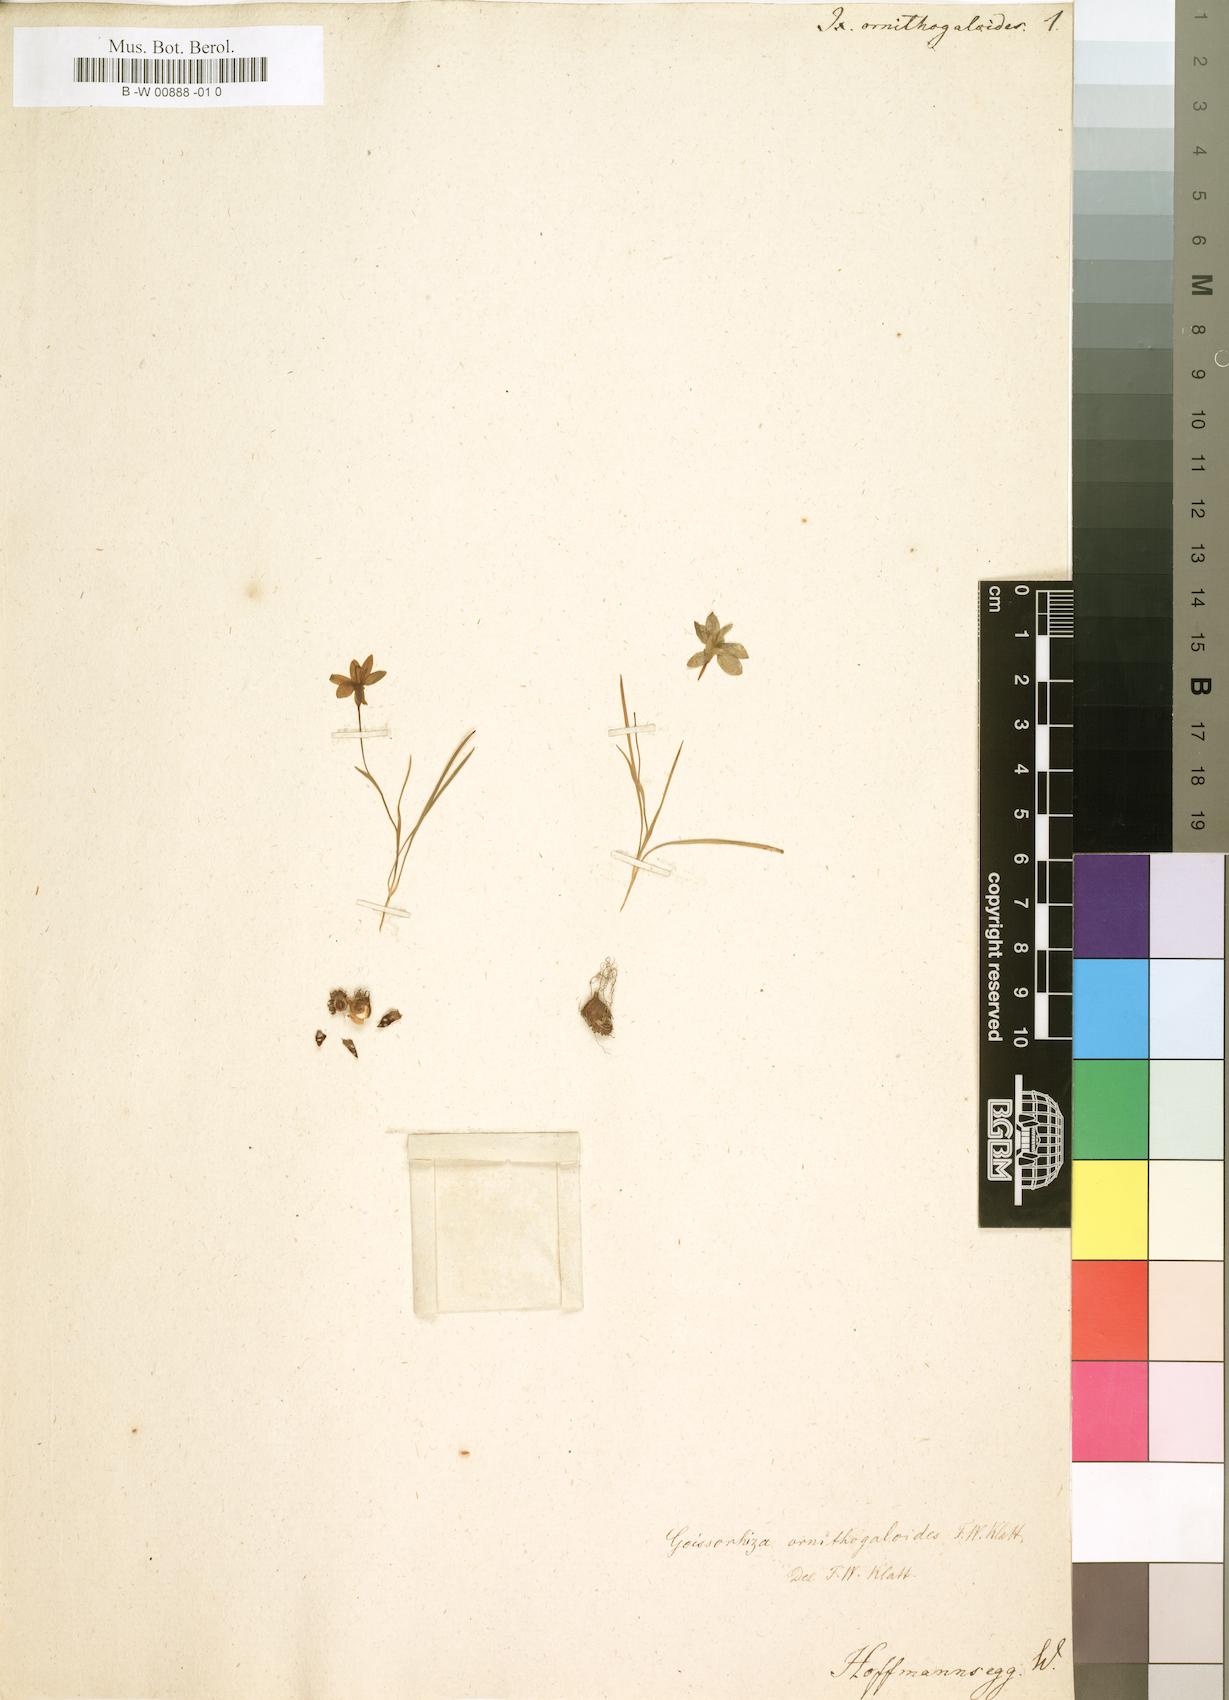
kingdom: Plantae
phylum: Tracheophyta
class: Liliopsida
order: Asparagales
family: Iridaceae
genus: Geissorhiza
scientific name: Geissorhiza ornithogaloides
